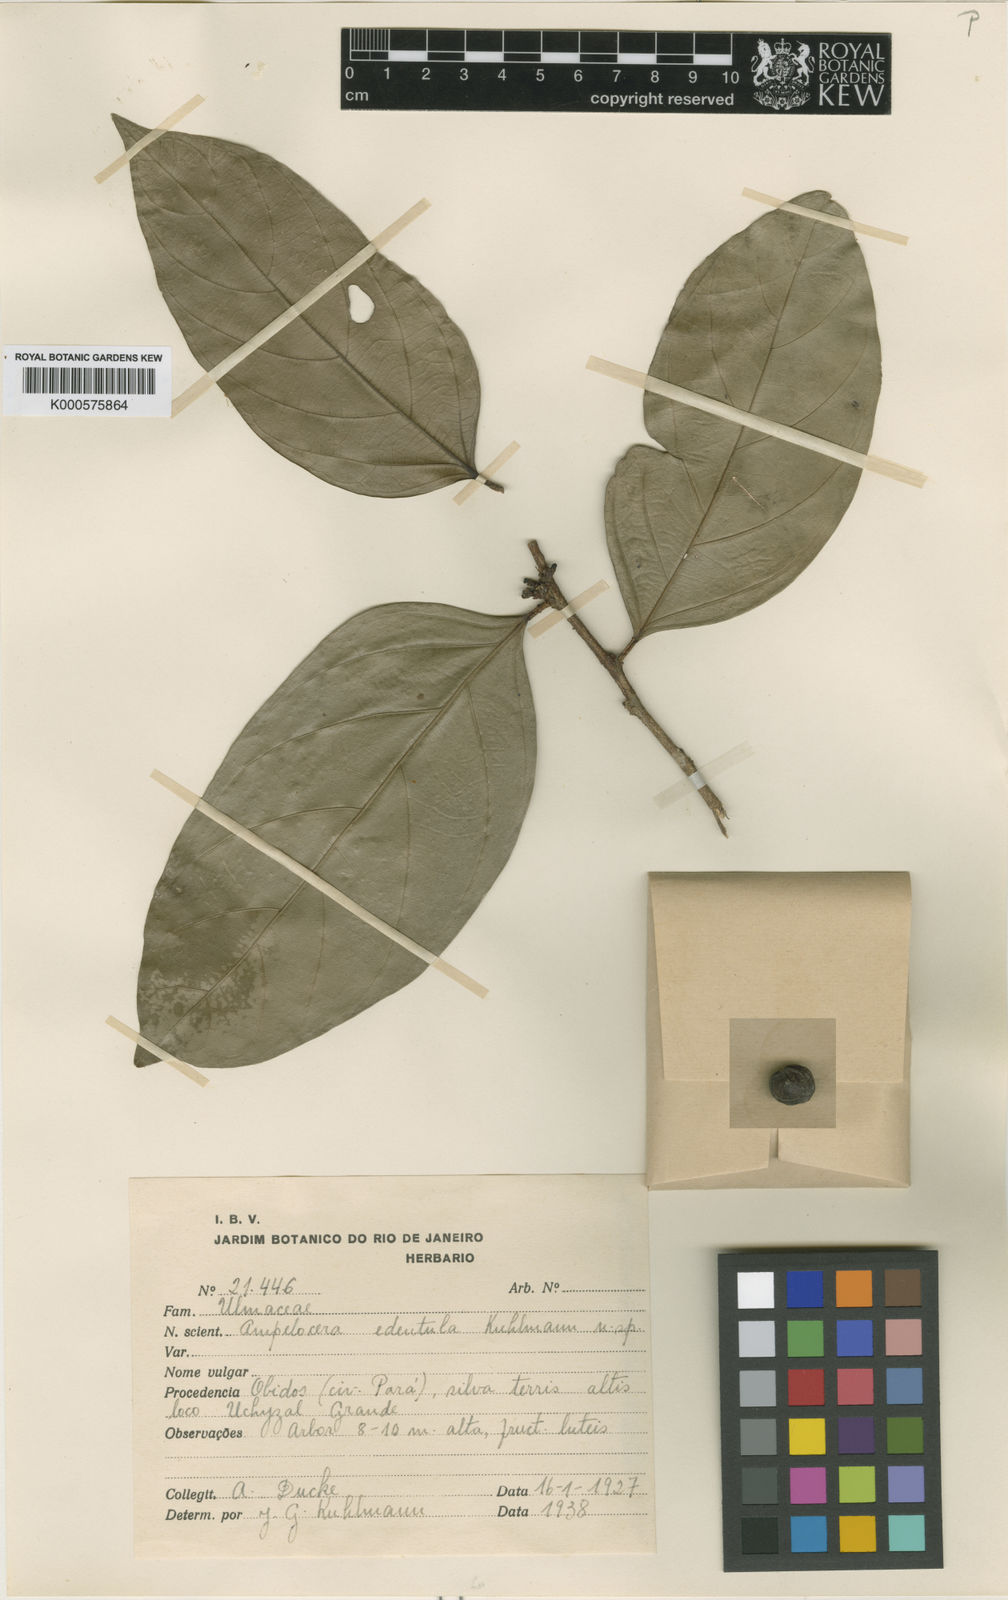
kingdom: Plantae
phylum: Tracheophyta
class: Magnoliopsida
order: Rosales
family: Cannabaceae
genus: Ampelocera
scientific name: Ampelocera edentula
